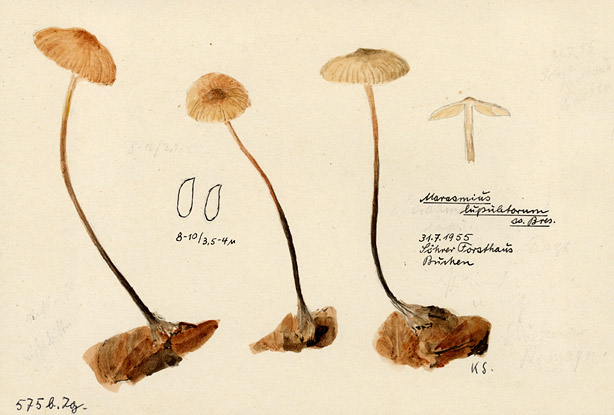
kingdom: Fungi
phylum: Basidiomycota
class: Agaricomycetes
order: Agaricales
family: Omphalotaceae
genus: Gymnopus
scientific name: Gymnopus dryophilus
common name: Penny top
